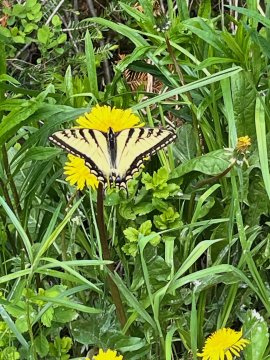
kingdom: Animalia
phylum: Arthropoda
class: Insecta
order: Lepidoptera
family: Papilionidae
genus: Pterourus
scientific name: Pterourus
